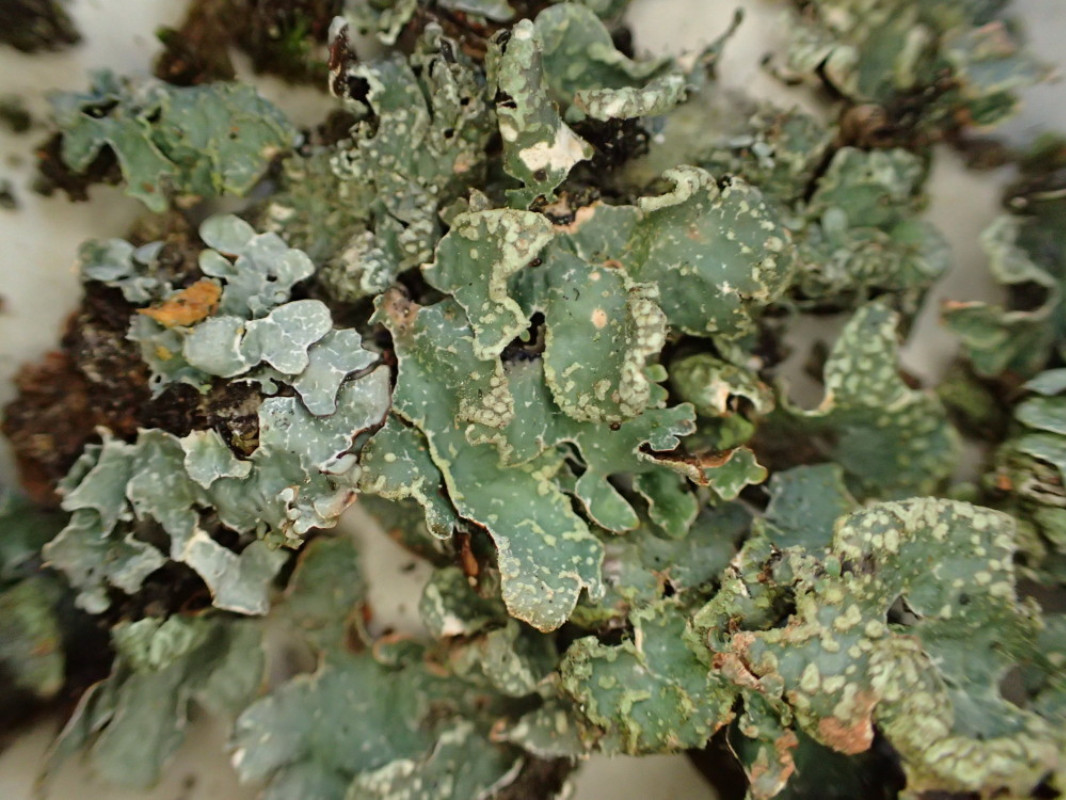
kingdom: Fungi
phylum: Ascomycota
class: Lecanoromycetes
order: Lecanorales
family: Parmeliaceae
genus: Parmelia
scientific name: Parmelia sulcata
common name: rynket skållav
